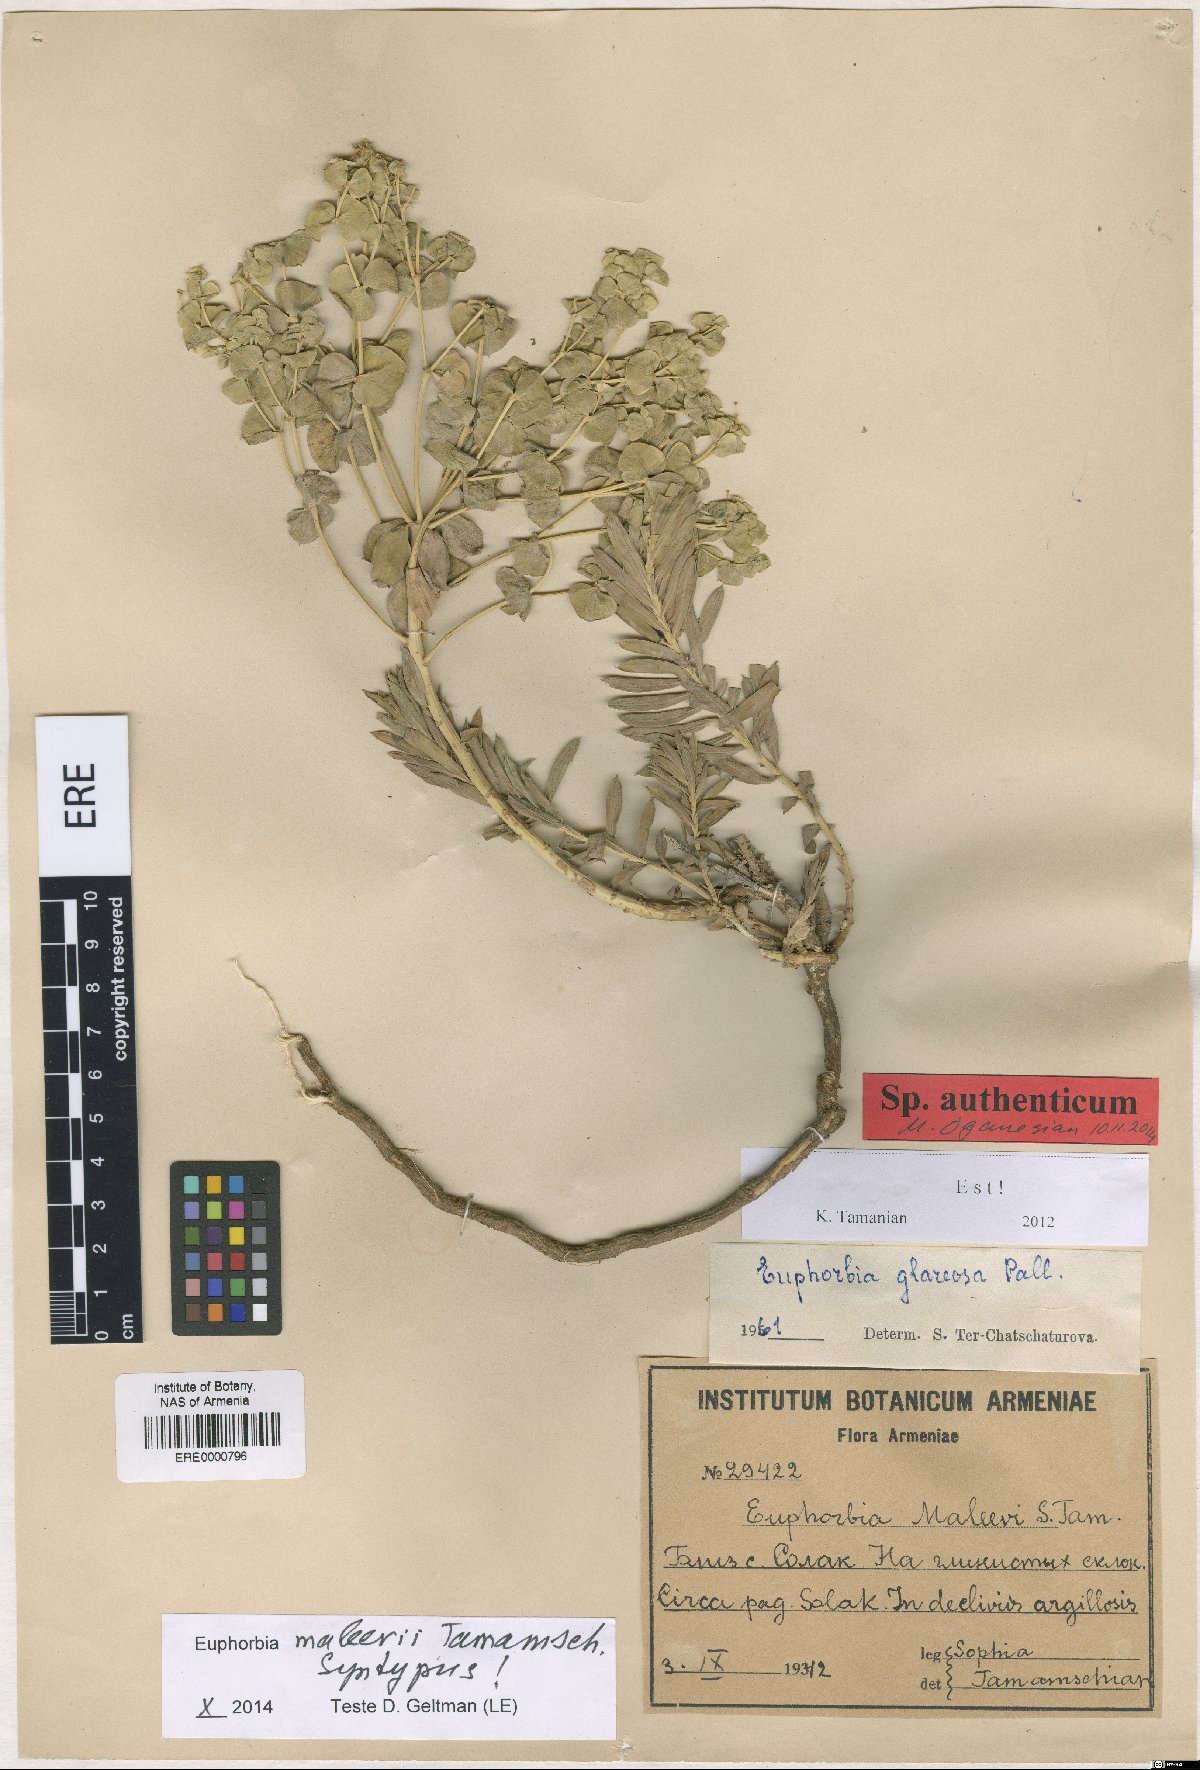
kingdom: Plantae
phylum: Tracheophyta
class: Magnoliopsida
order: Malpighiales
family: Euphorbiaceae
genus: Euphorbia
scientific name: Euphorbia glareosa
